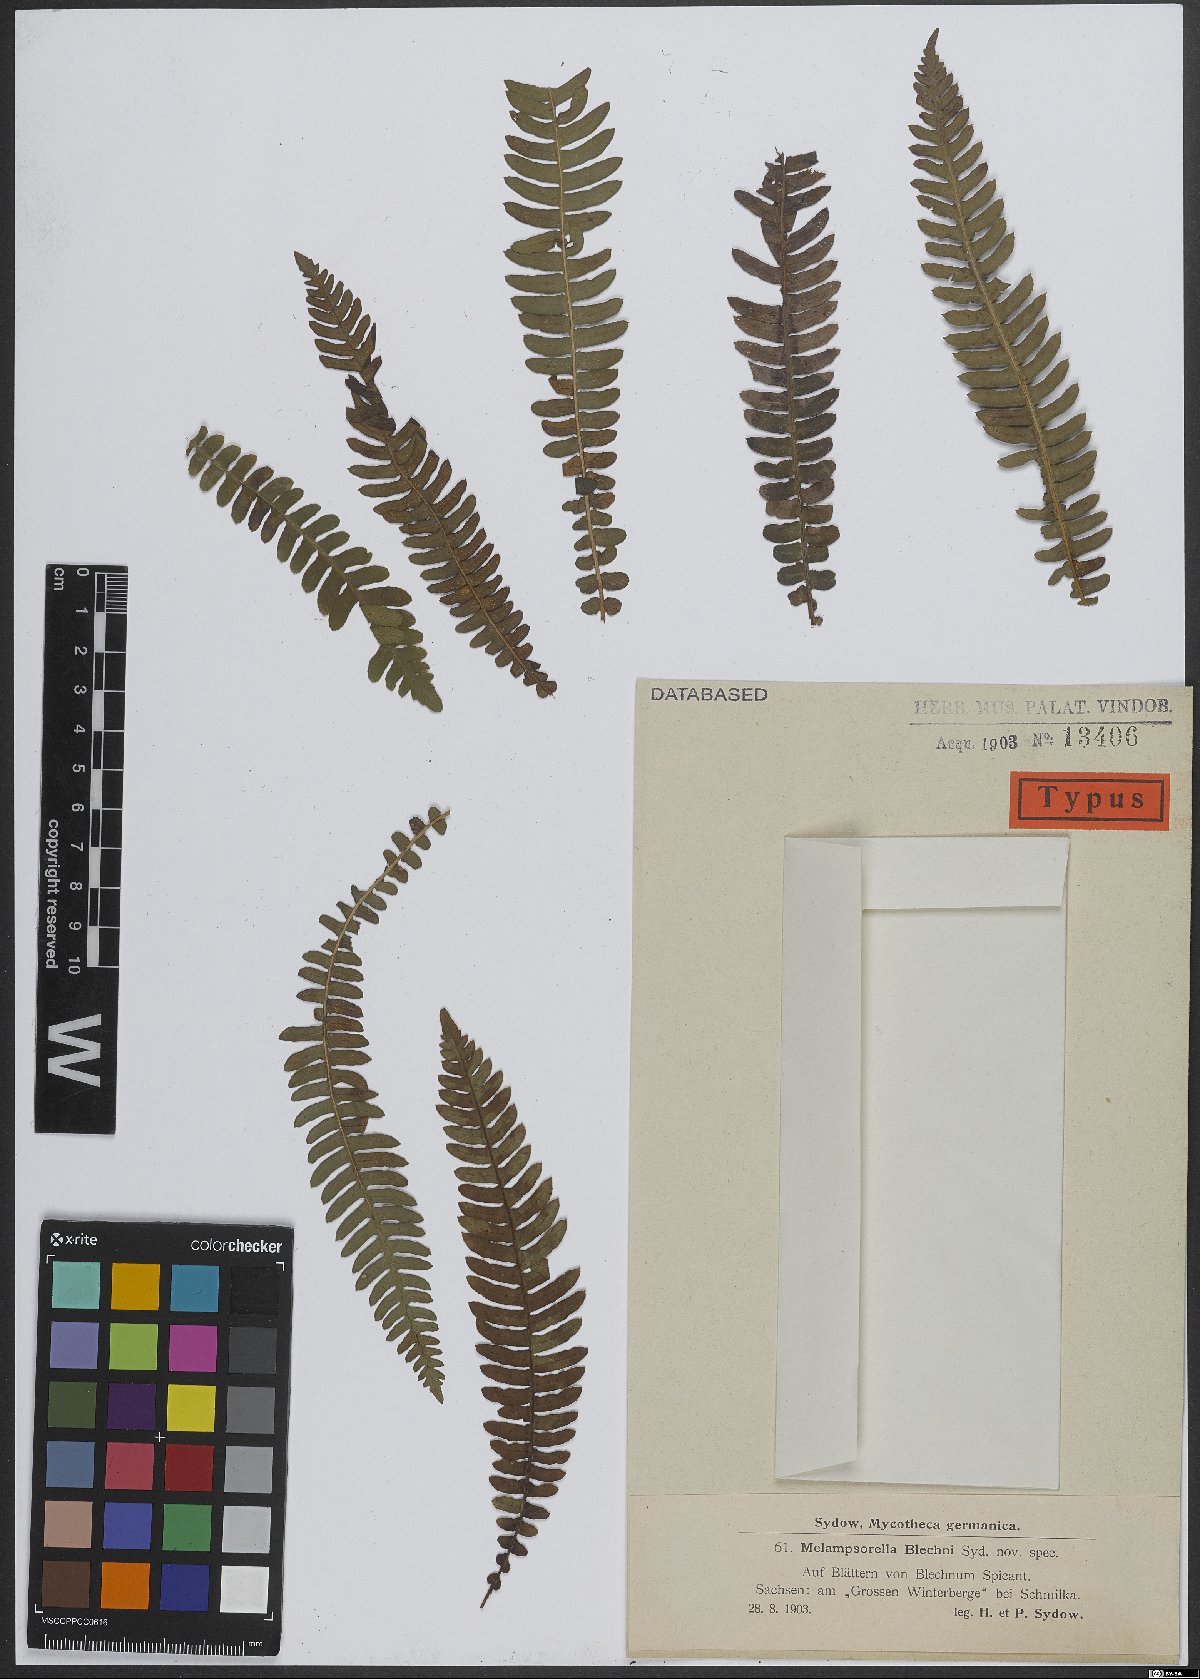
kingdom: Fungi
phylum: Basidiomycota
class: Pucciniomycetes
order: Pucciniales
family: Milesinaceae
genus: Milesina
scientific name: Milesina blechni
